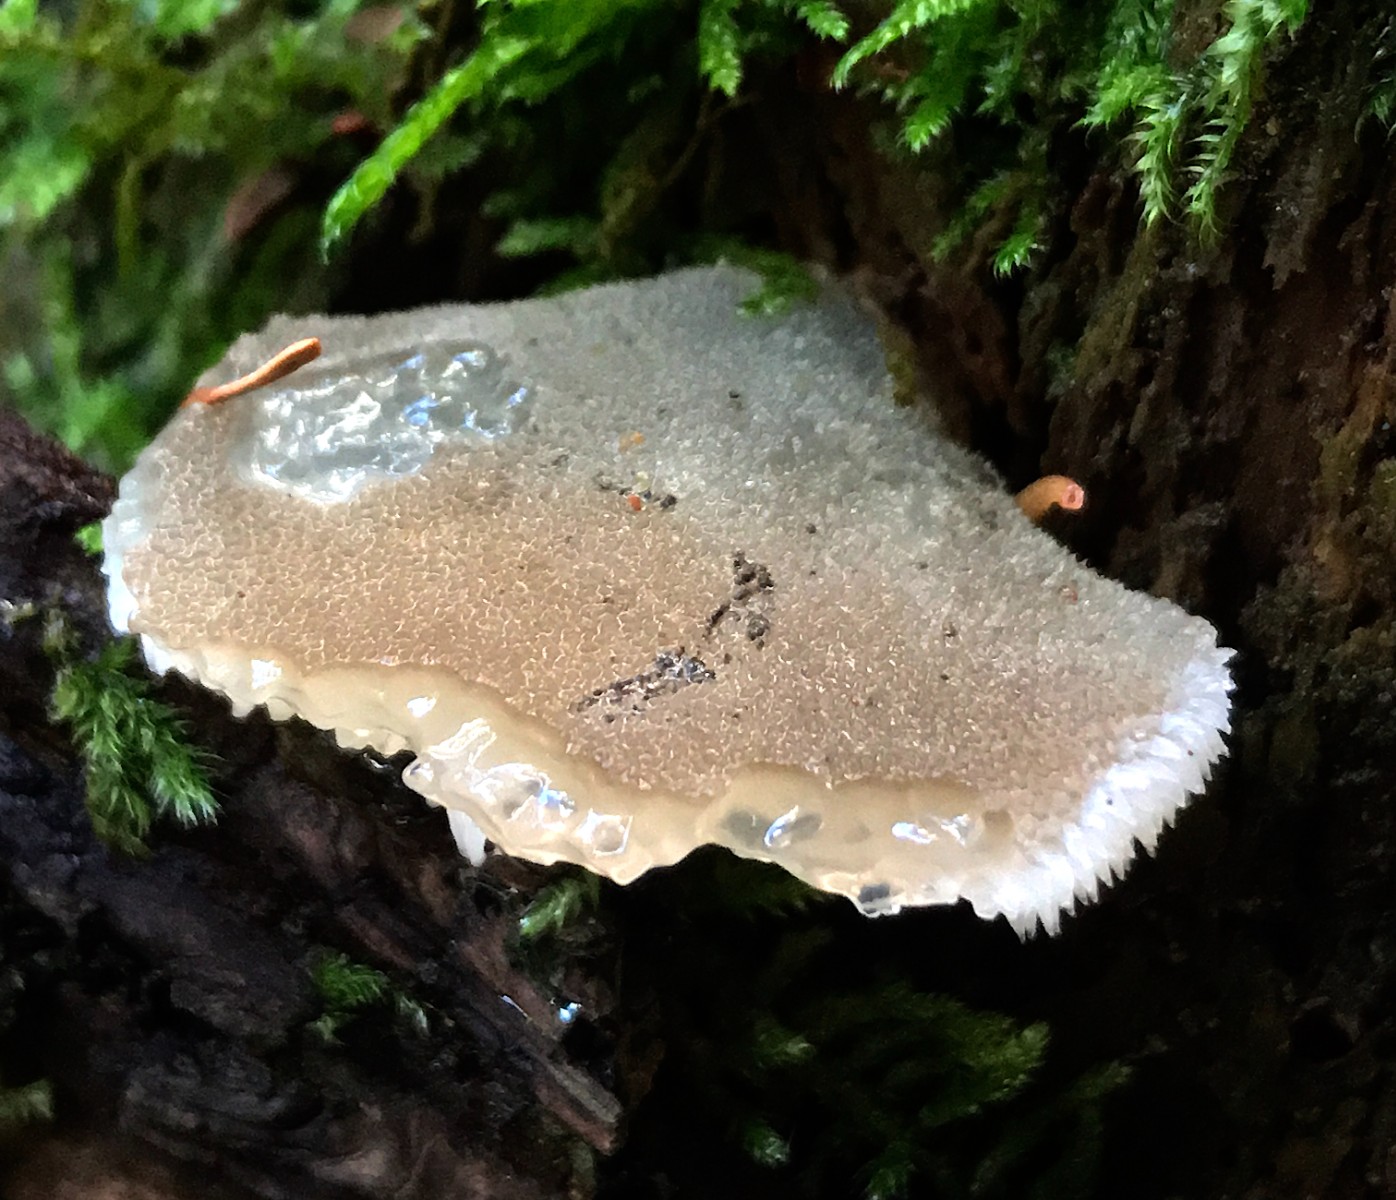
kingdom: Fungi
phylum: Basidiomycota
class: Agaricomycetes
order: Auriculariales
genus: Pseudohydnum
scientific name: Pseudohydnum gelatinosum
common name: bævretand
